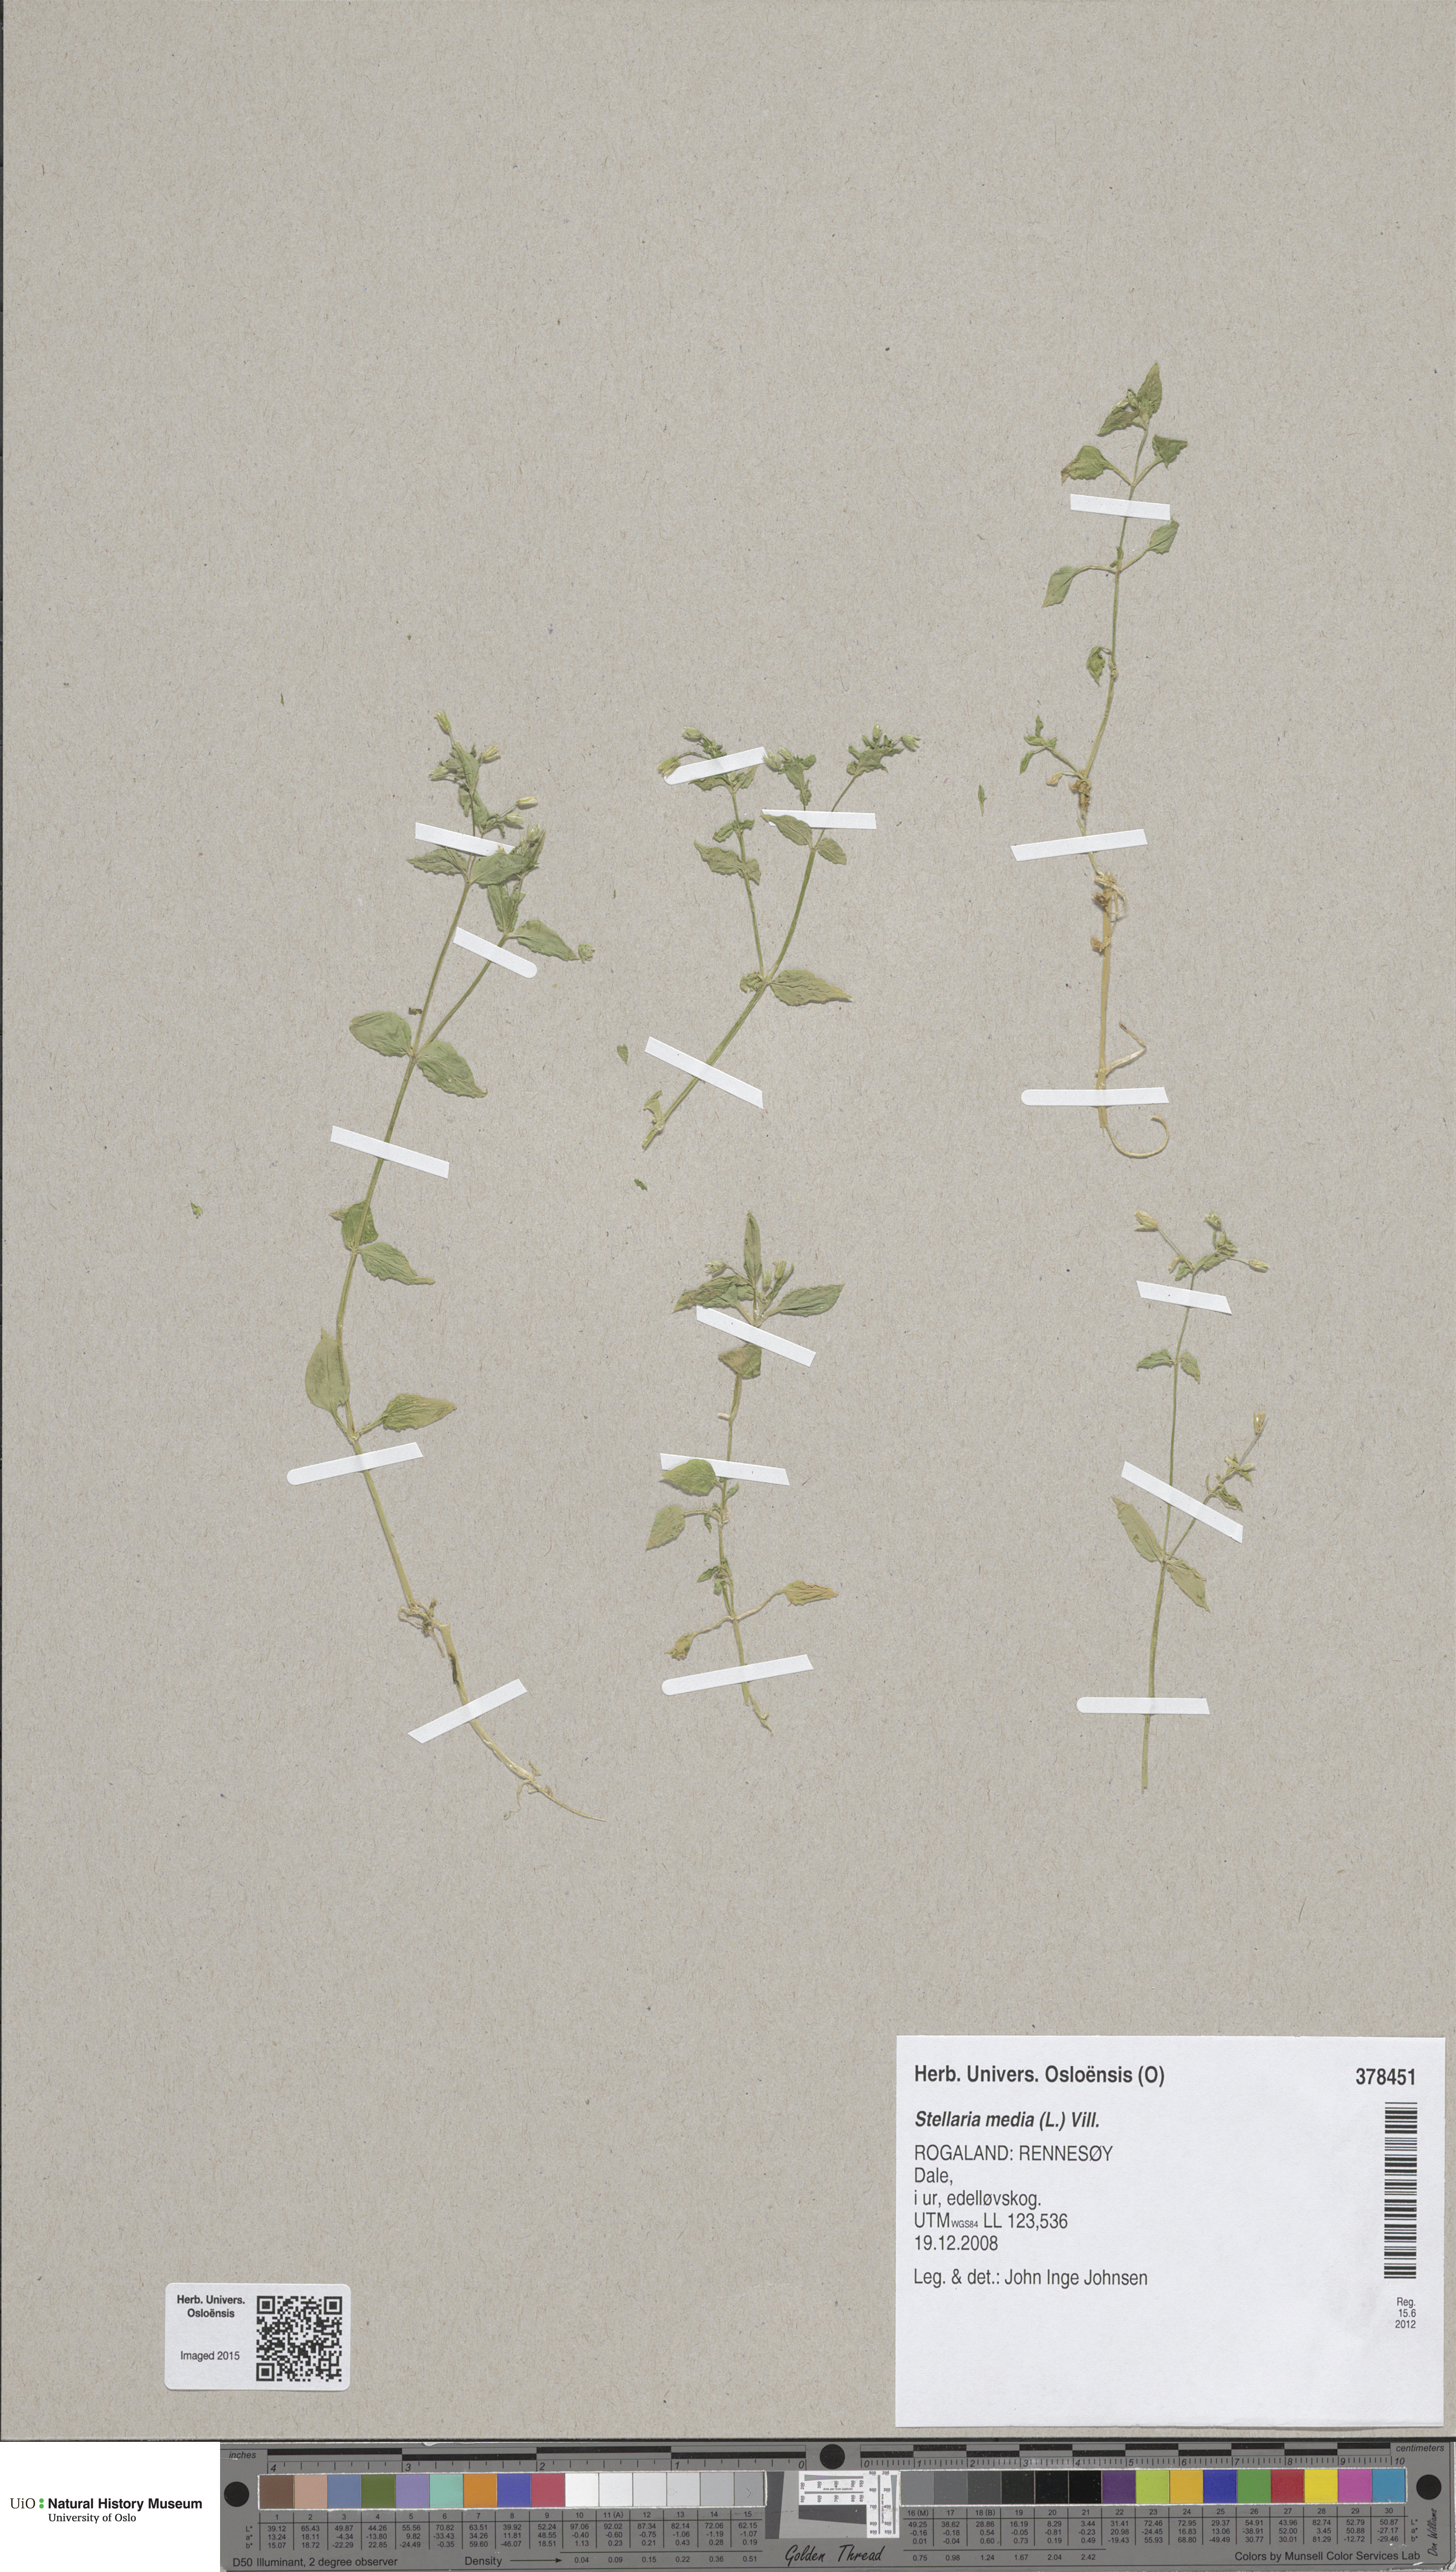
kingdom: Plantae
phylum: Tracheophyta
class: Magnoliopsida
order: Caryophyllales
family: Caryophyllaceae
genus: Stellaria
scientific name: Stellaria media
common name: Common chickweed
